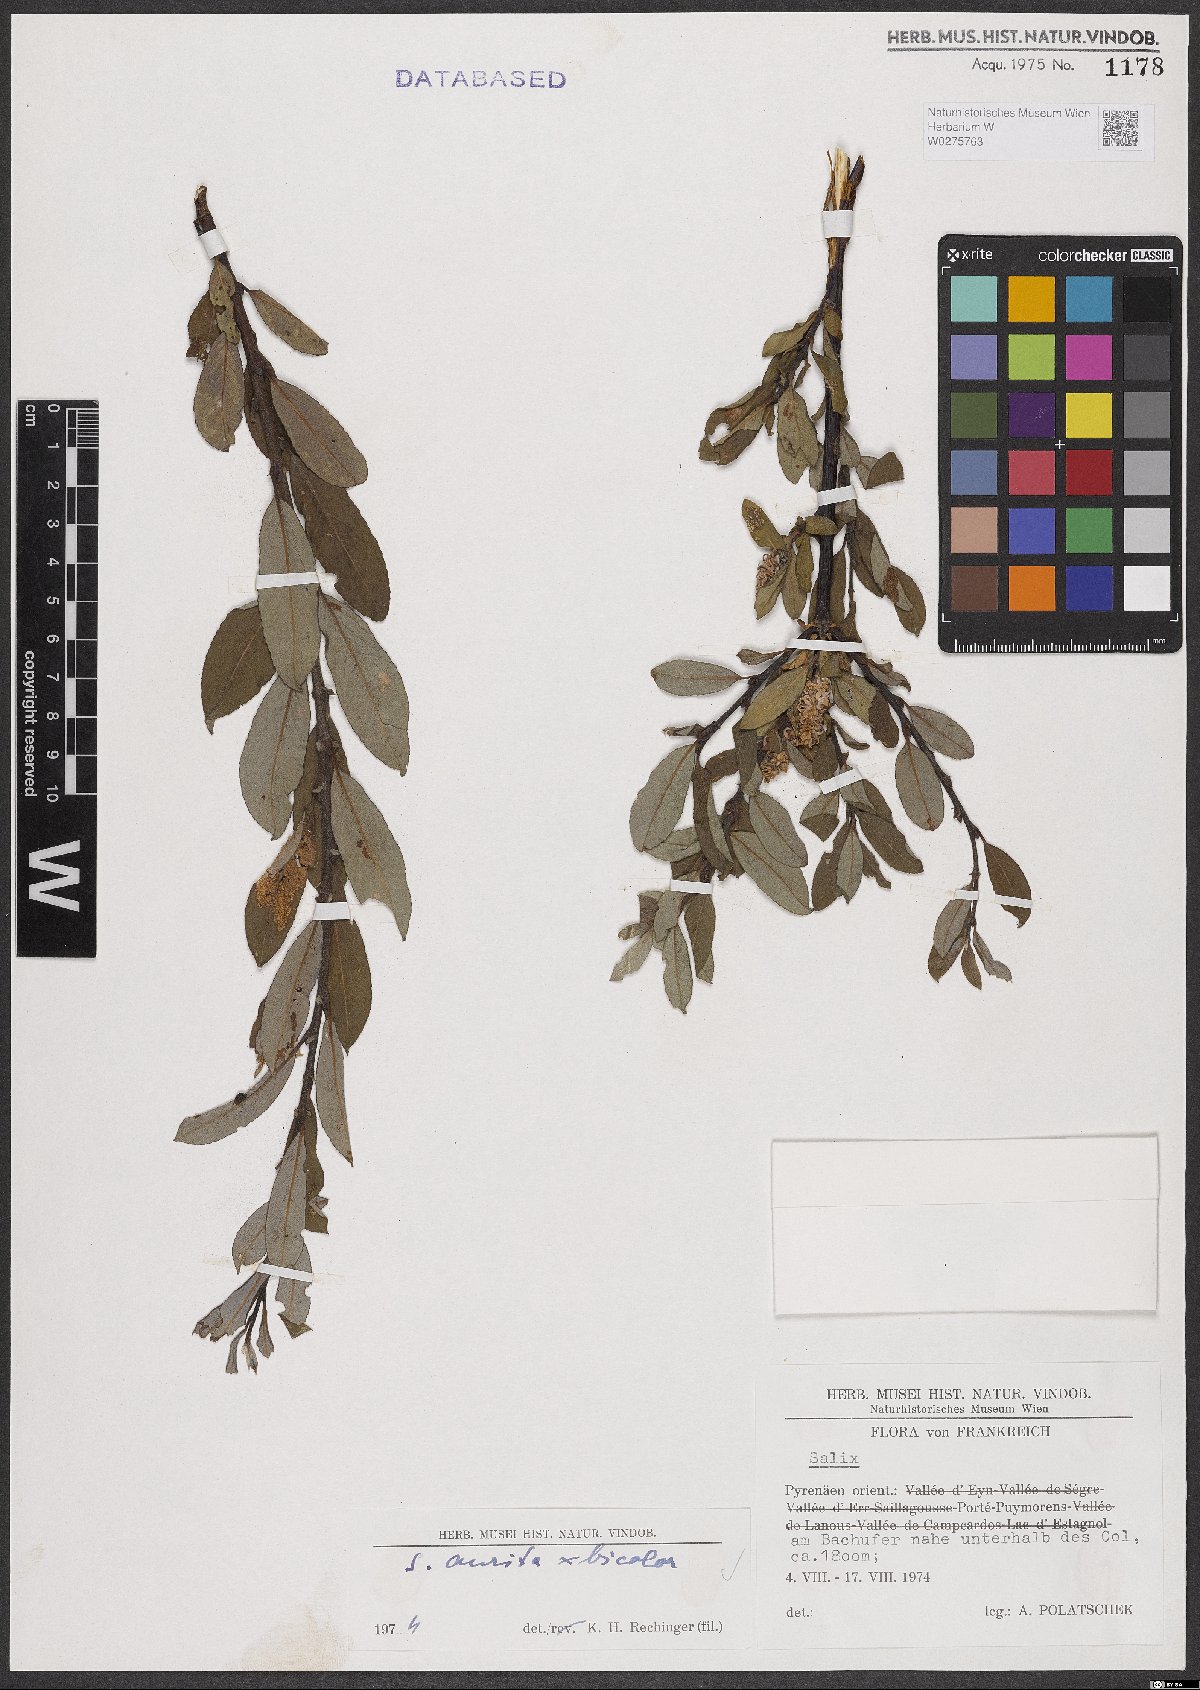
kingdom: Plantae
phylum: Tracheophyta
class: Magnoliopsida
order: Malpighiales
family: Salicaceae
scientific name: Salicaceae
